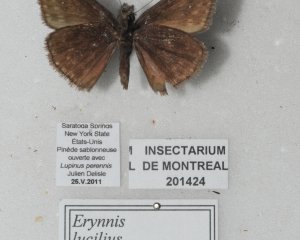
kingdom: Animalia
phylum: Arthropoda
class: Insecta
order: Lepidoptera
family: Hesperiidae
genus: Gesta
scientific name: Gesta
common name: Columbine Duskywing
